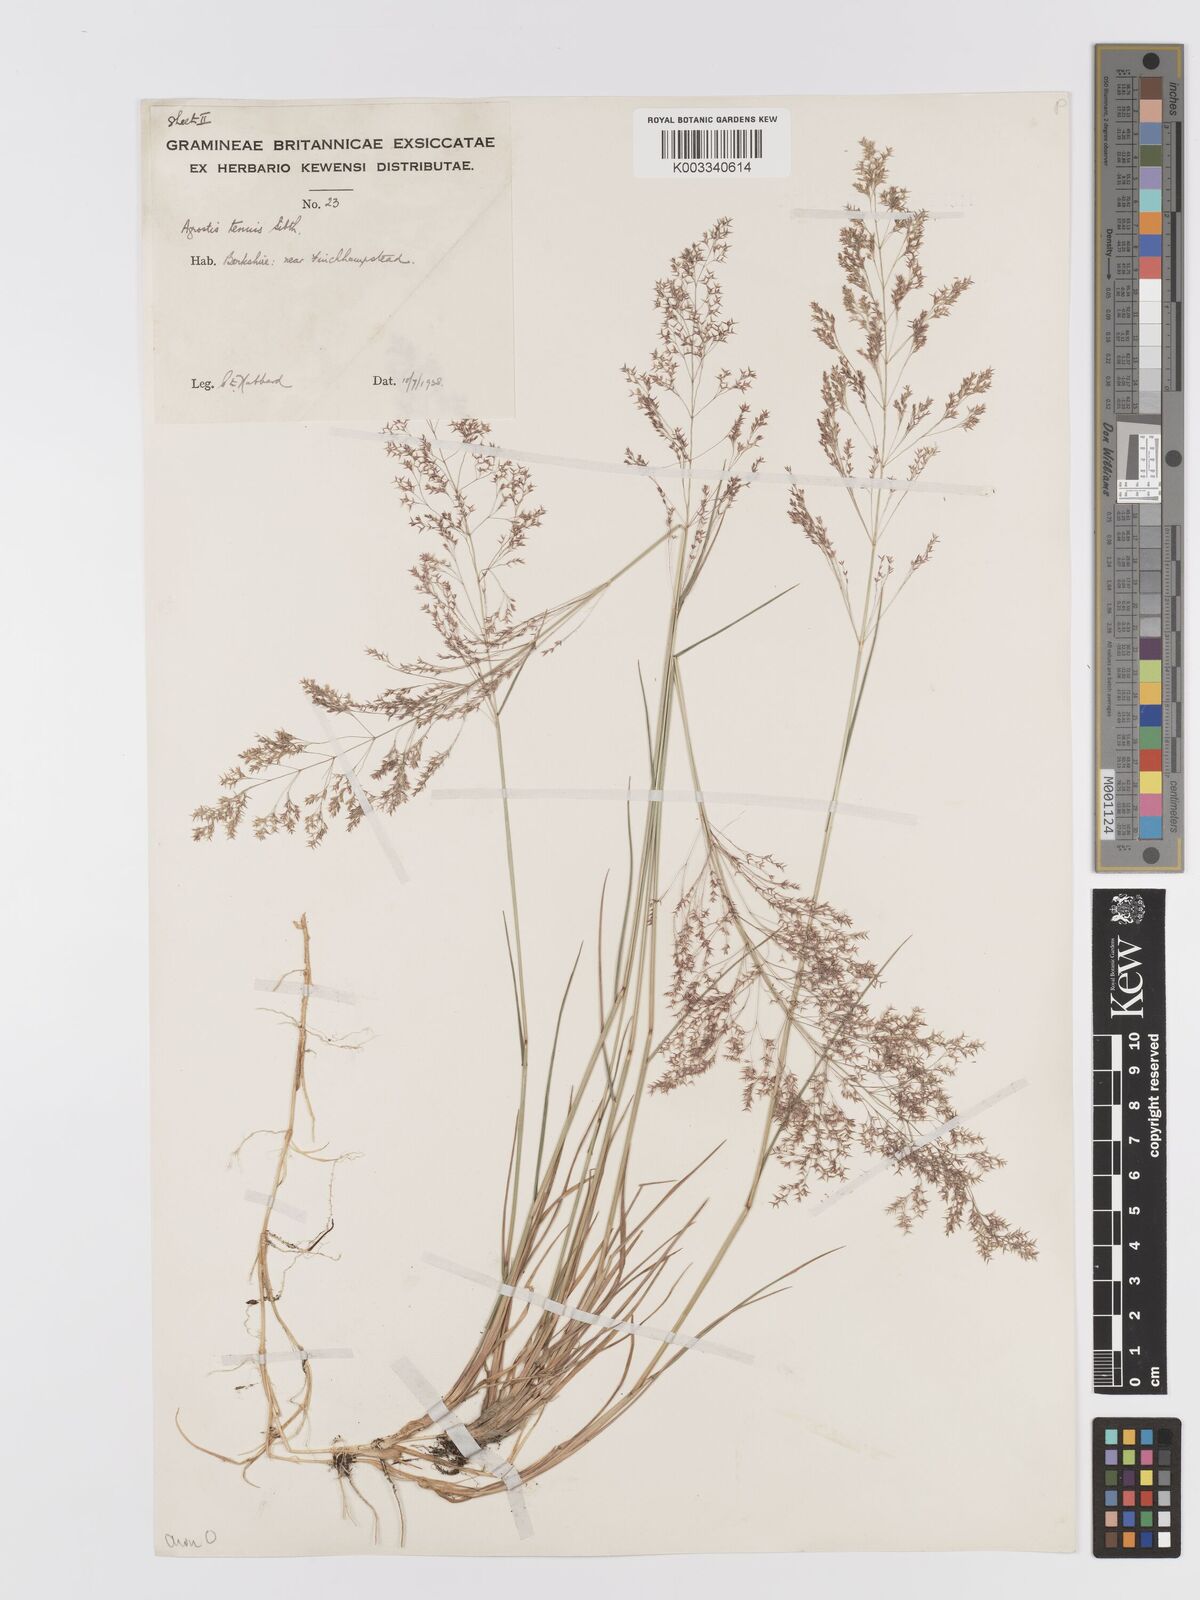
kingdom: Plantae
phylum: Tracheophyta
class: Liliopsida
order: Poales
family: Poaceae
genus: Agrostis
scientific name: Agrostis capillaris
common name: Colonial bentgrass
